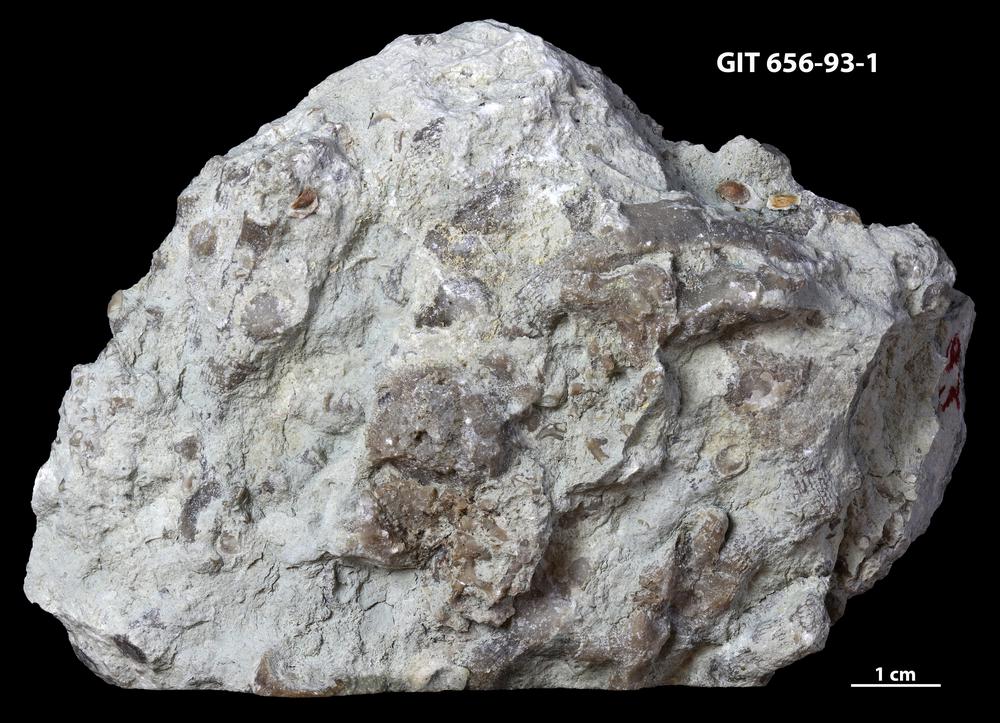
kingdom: Animalia
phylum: Porifera
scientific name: Porifera
